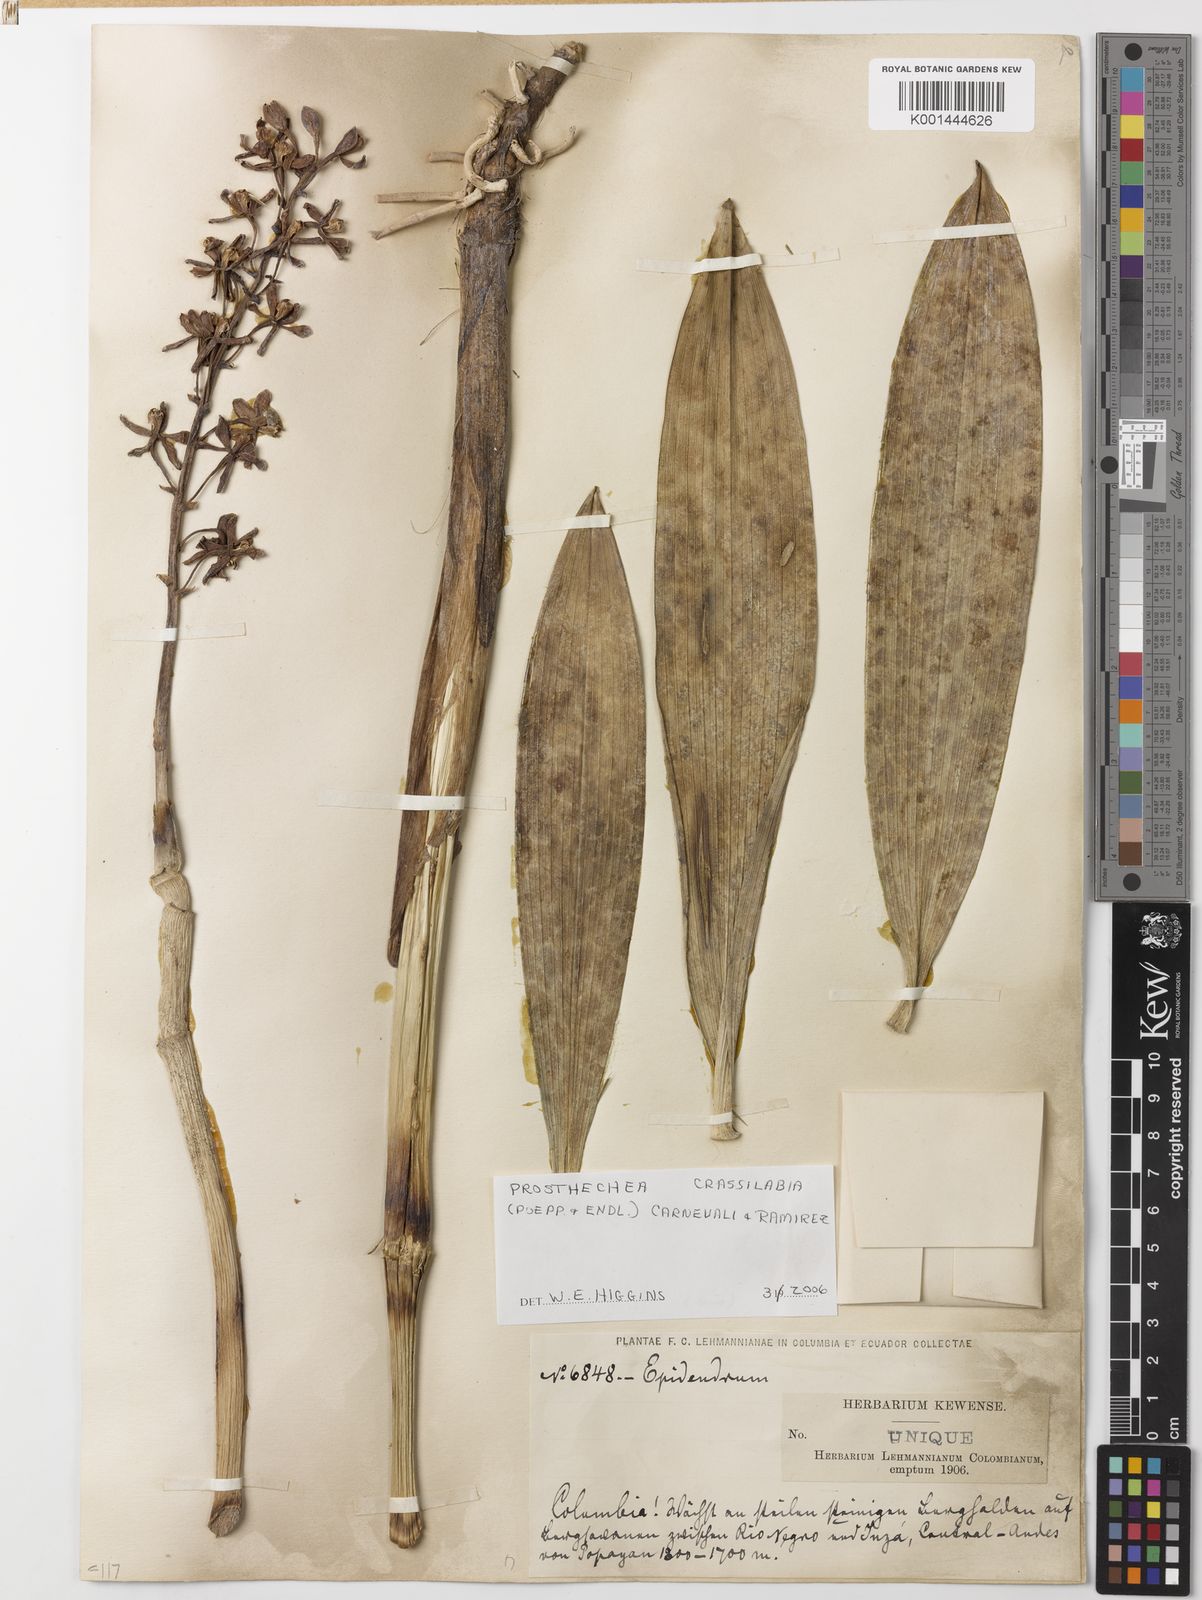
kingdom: Plantae
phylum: Tracheophyta
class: Liliopsida
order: Asparagales
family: Orchidaceae
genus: Prosthechea
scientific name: Prosthechea crassilabia
